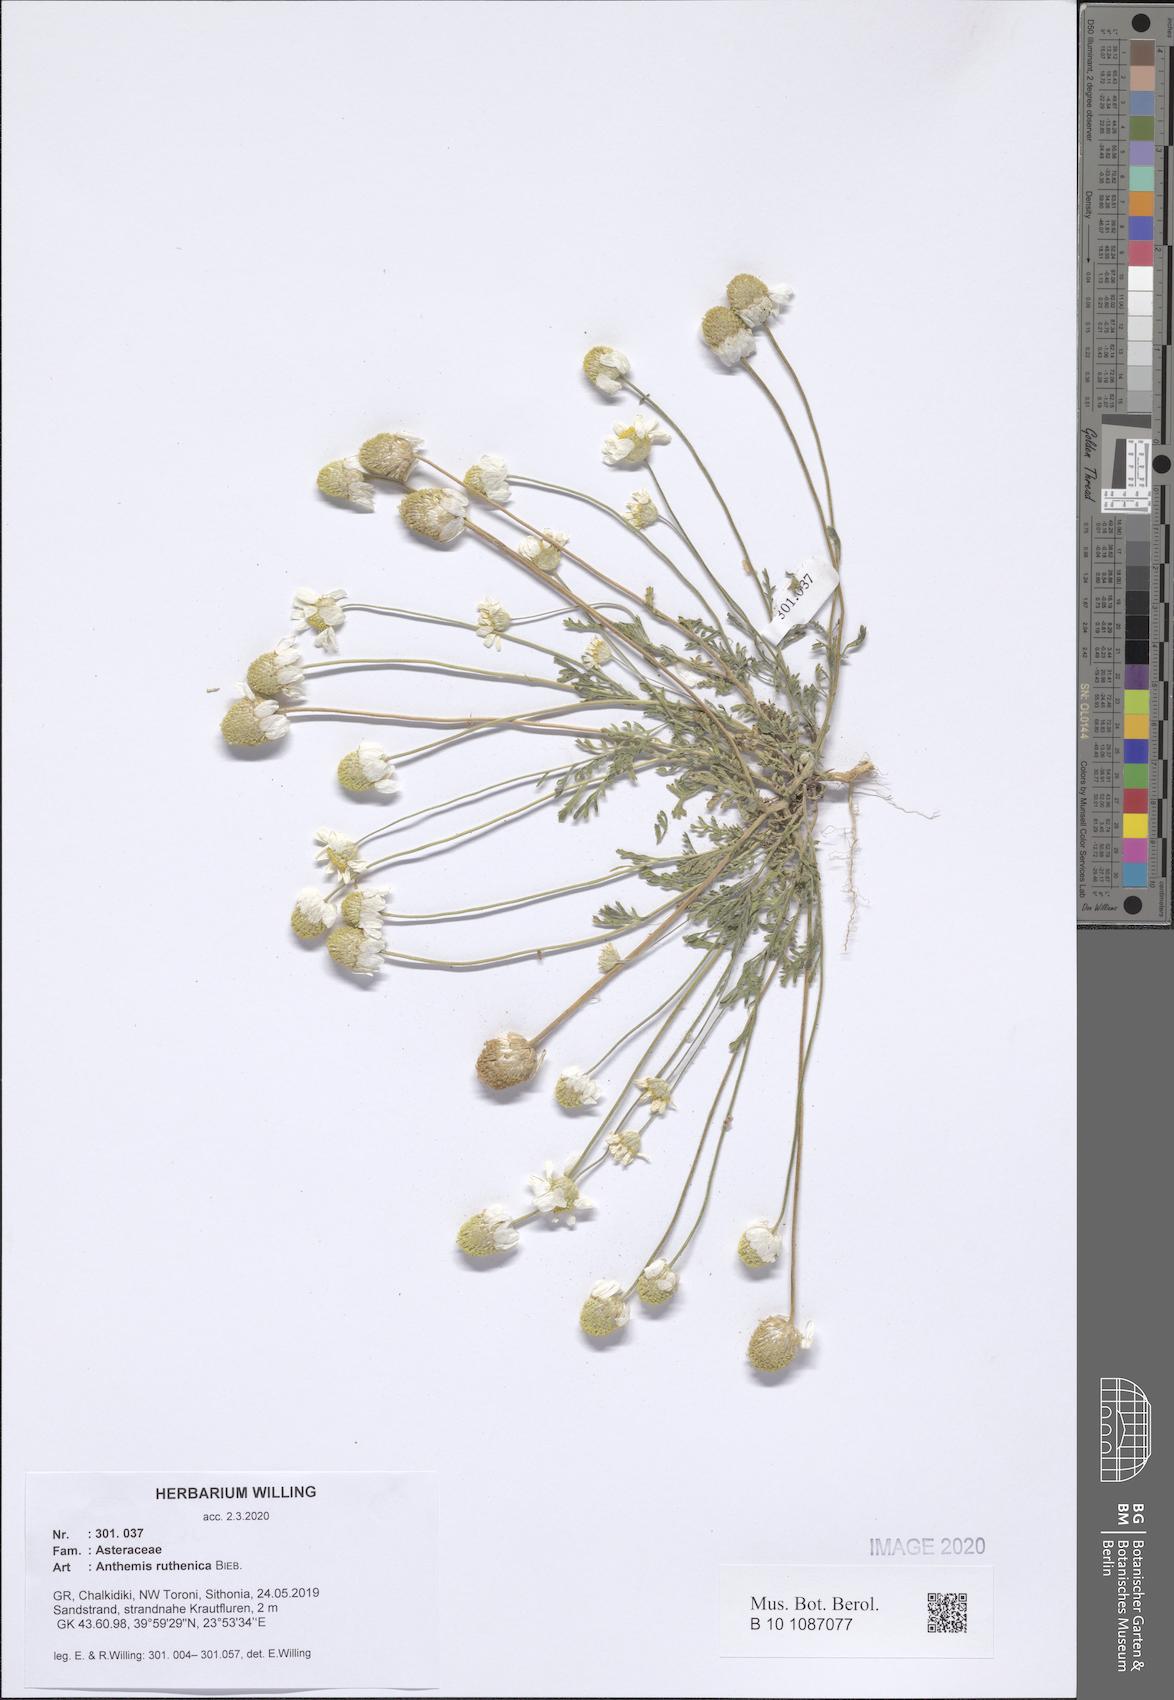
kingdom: Plantae
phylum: Tracheophyta
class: Magnoliopsida
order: Asterales
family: Asteraceae
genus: Anthemis
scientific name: Anthemis ruthenica
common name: Eastern chamomile
